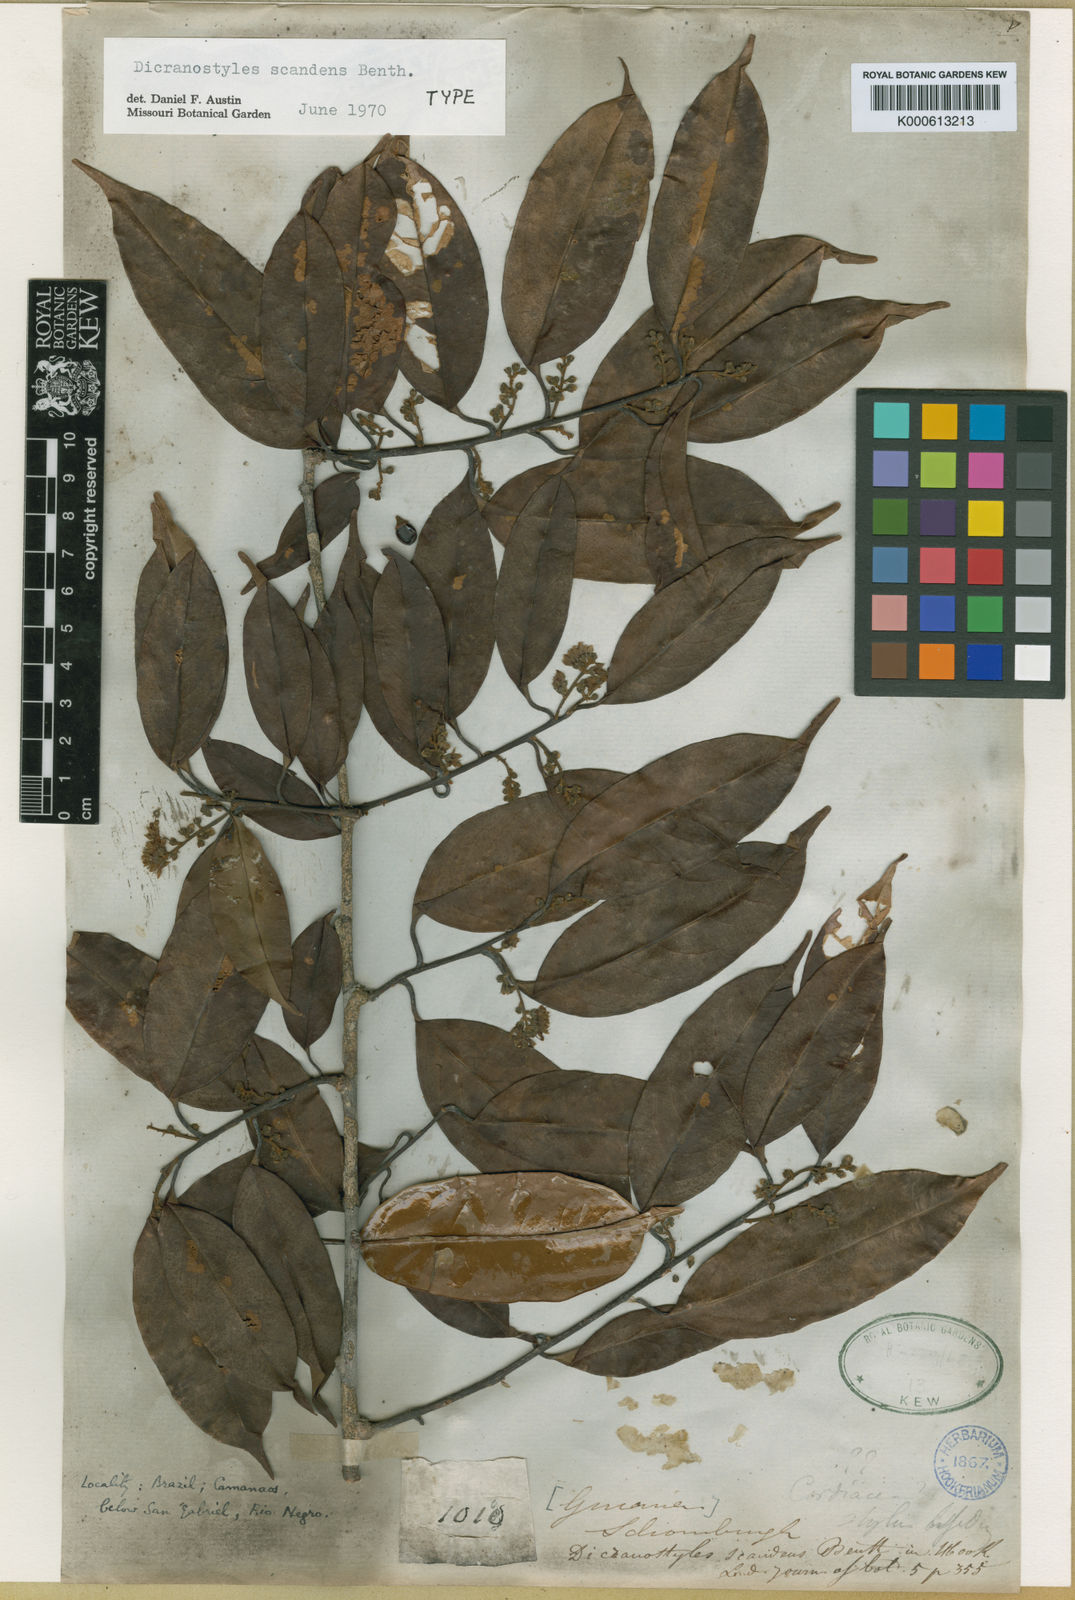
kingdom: Plantae
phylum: Tracheophyta
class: Magnoliopsida
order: Solanales
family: Convolvulaceae
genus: Dicranostyles
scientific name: Dicranostyles scandens
